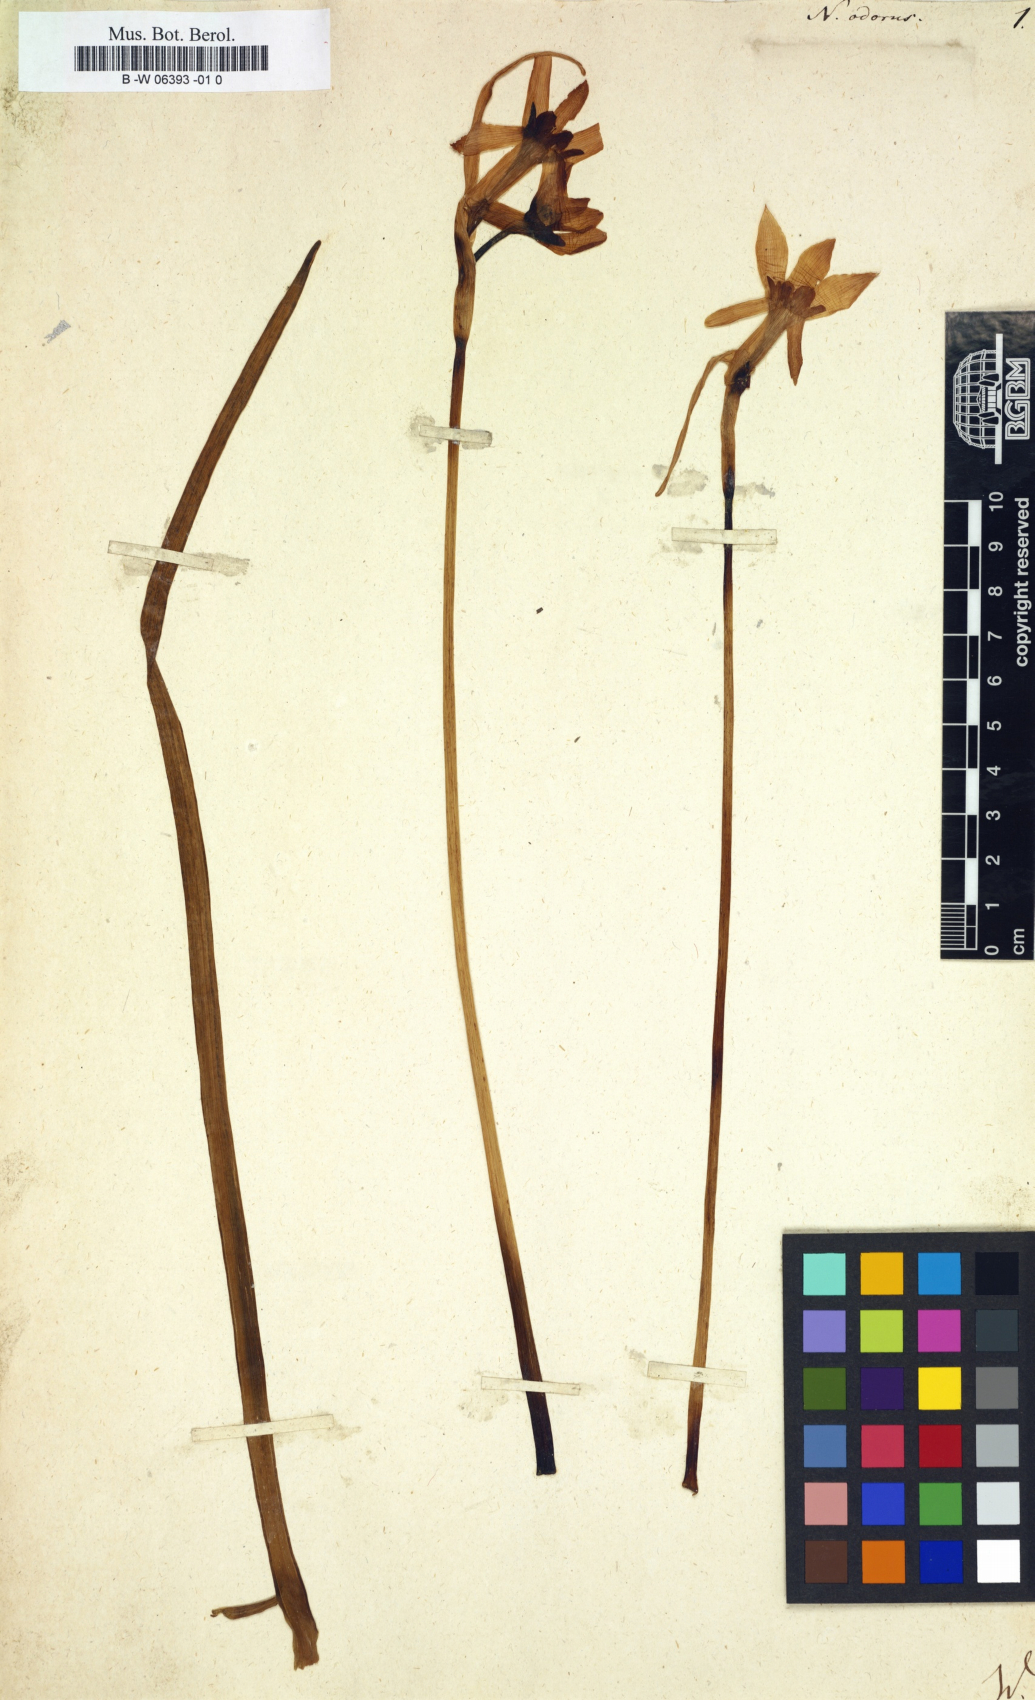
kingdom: Plantae
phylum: Tracheophyta
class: Liliopsida
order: Asparagales
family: Amaryllidaceae
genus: Narcissus
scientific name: Narcissus odorus
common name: Campernelle jonquil
